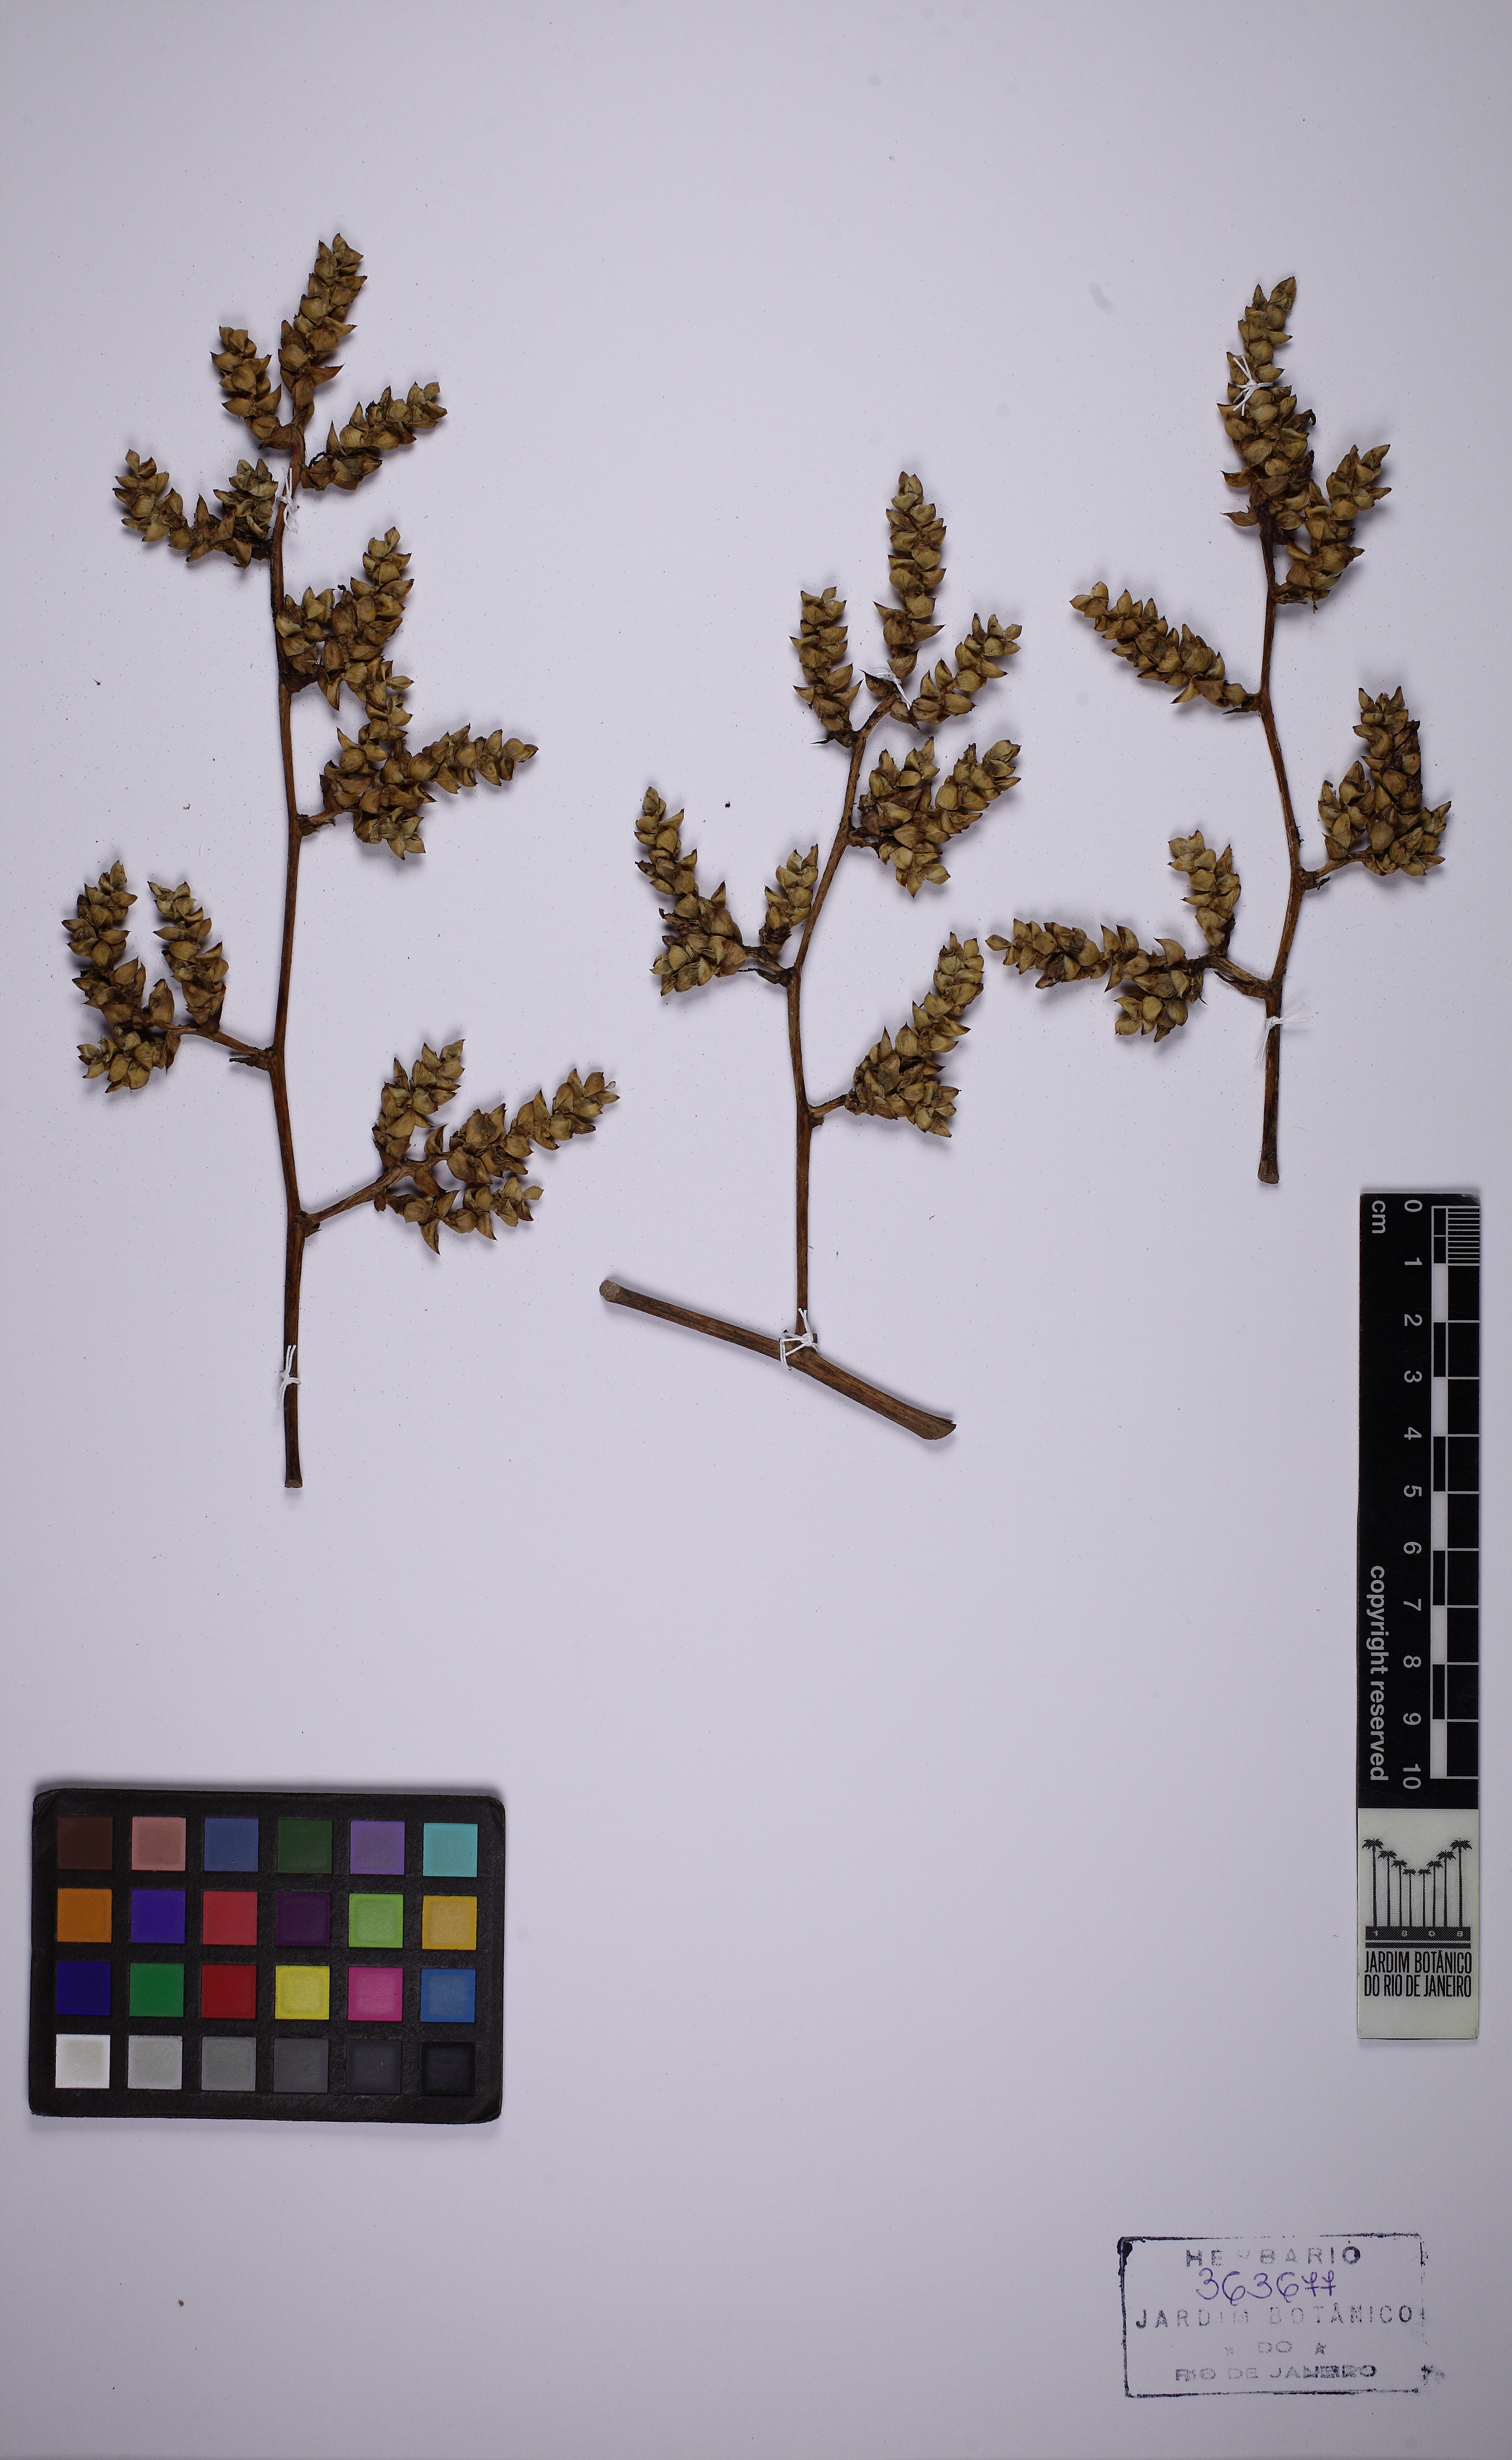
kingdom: Plantae
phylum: Tracheophyta
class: Liliopsida
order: Poales
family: Bromeliaceae
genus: Hohenbergia
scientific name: Hohenbergia blanchetii
